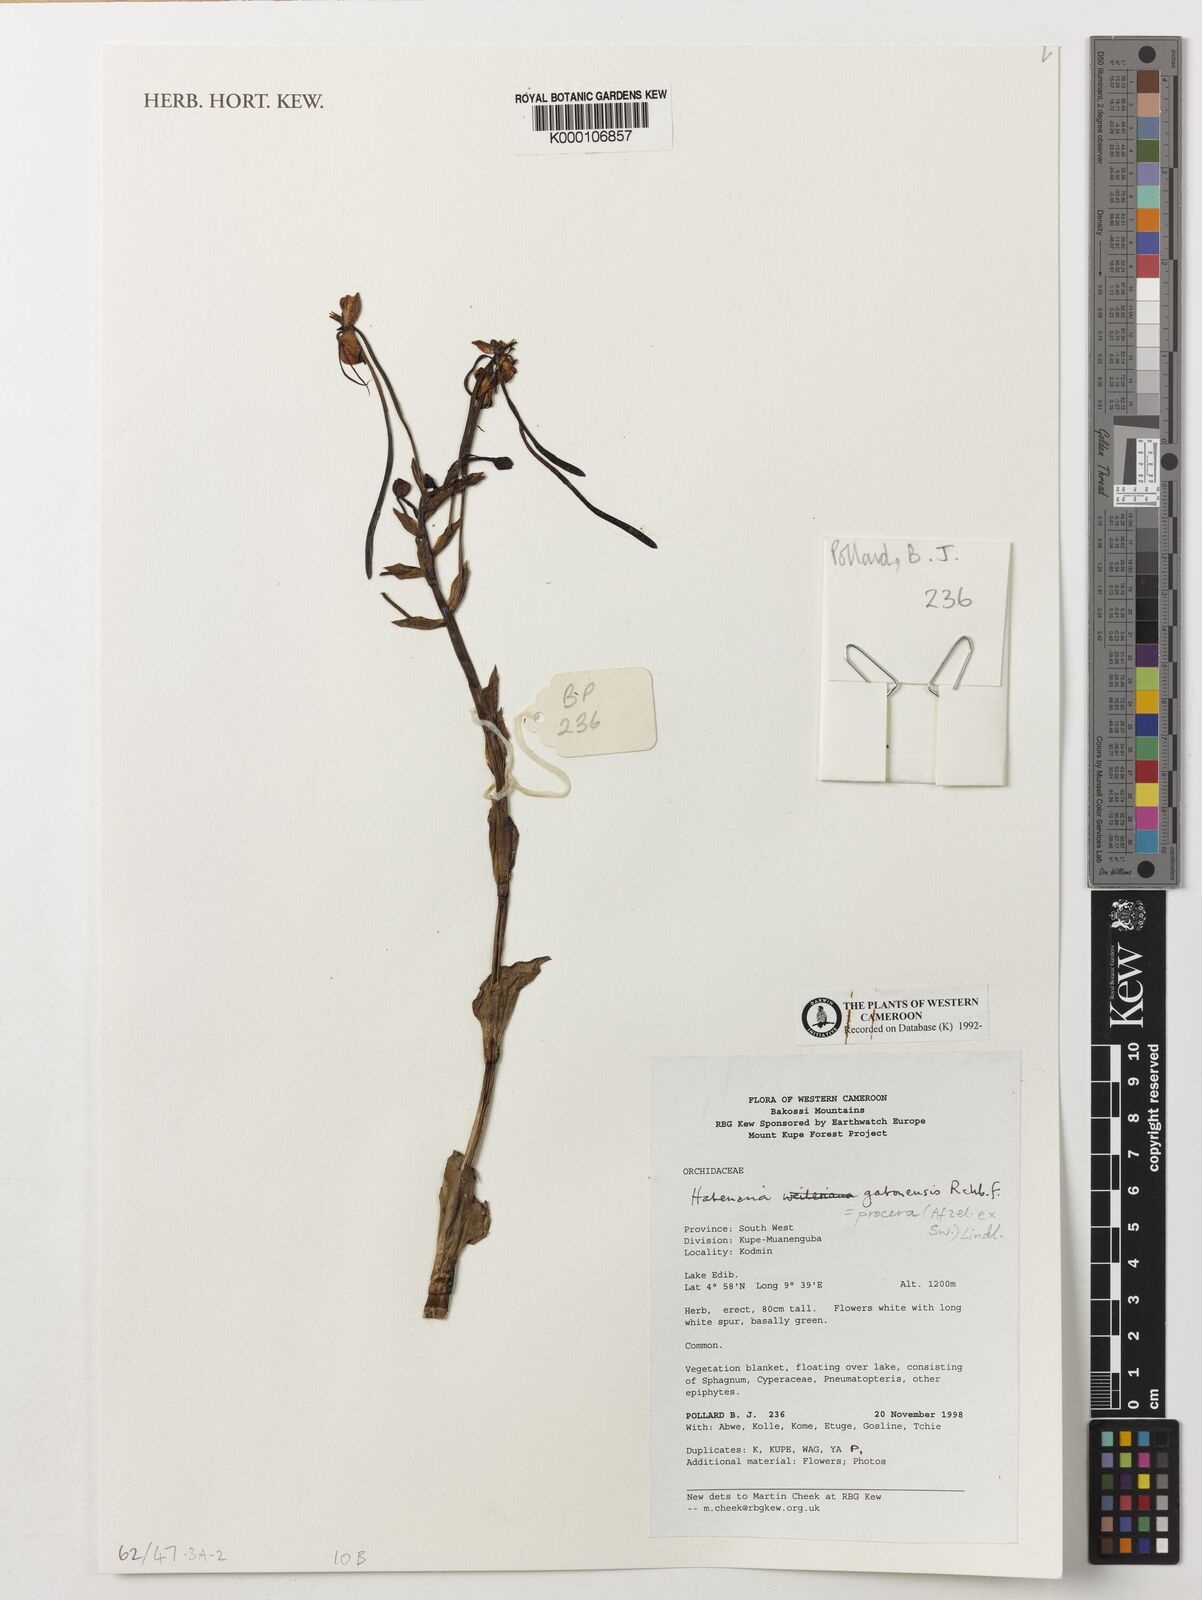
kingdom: Plantae
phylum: Tracheophyta
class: Liliopsida
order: Asparagales
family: Orchidaceae
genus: Habenaria
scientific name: Habenaria procera
